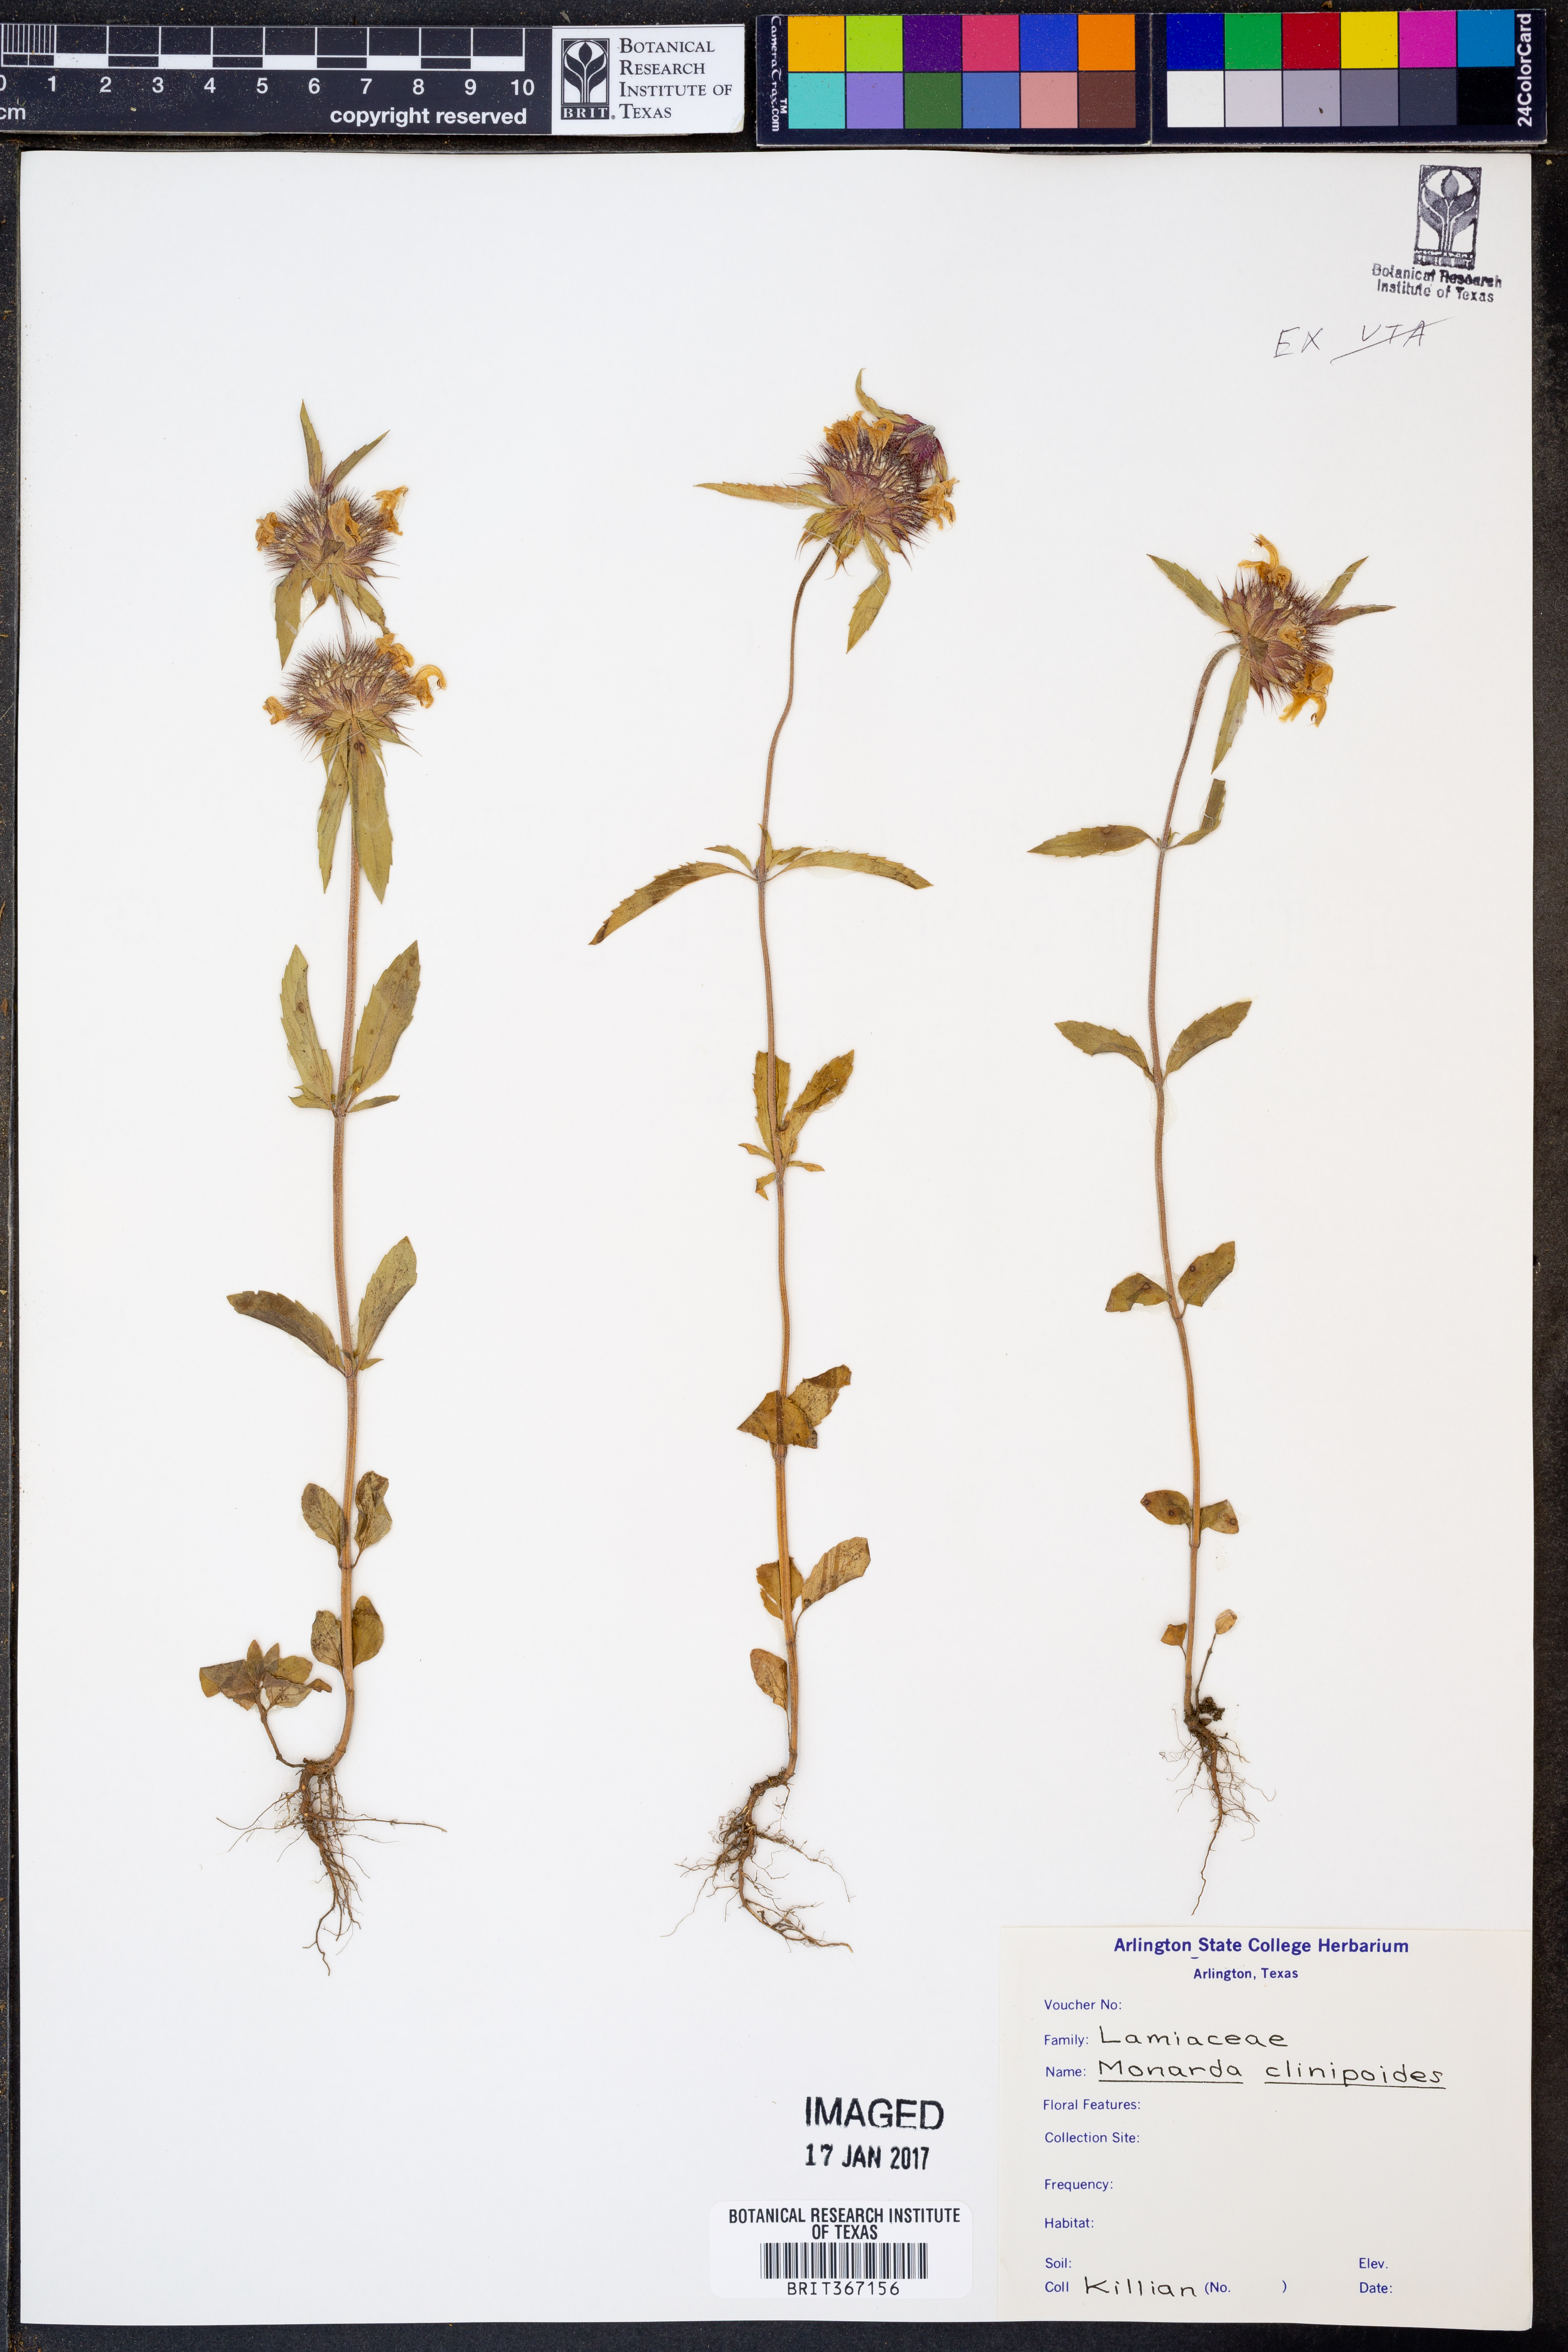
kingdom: Plantae
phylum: Tracheophyta
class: Magnoliopsida
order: Lamiales
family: Lamiaceae
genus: Monarda
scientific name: Monarda clinopodioides
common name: Basil beebalm
